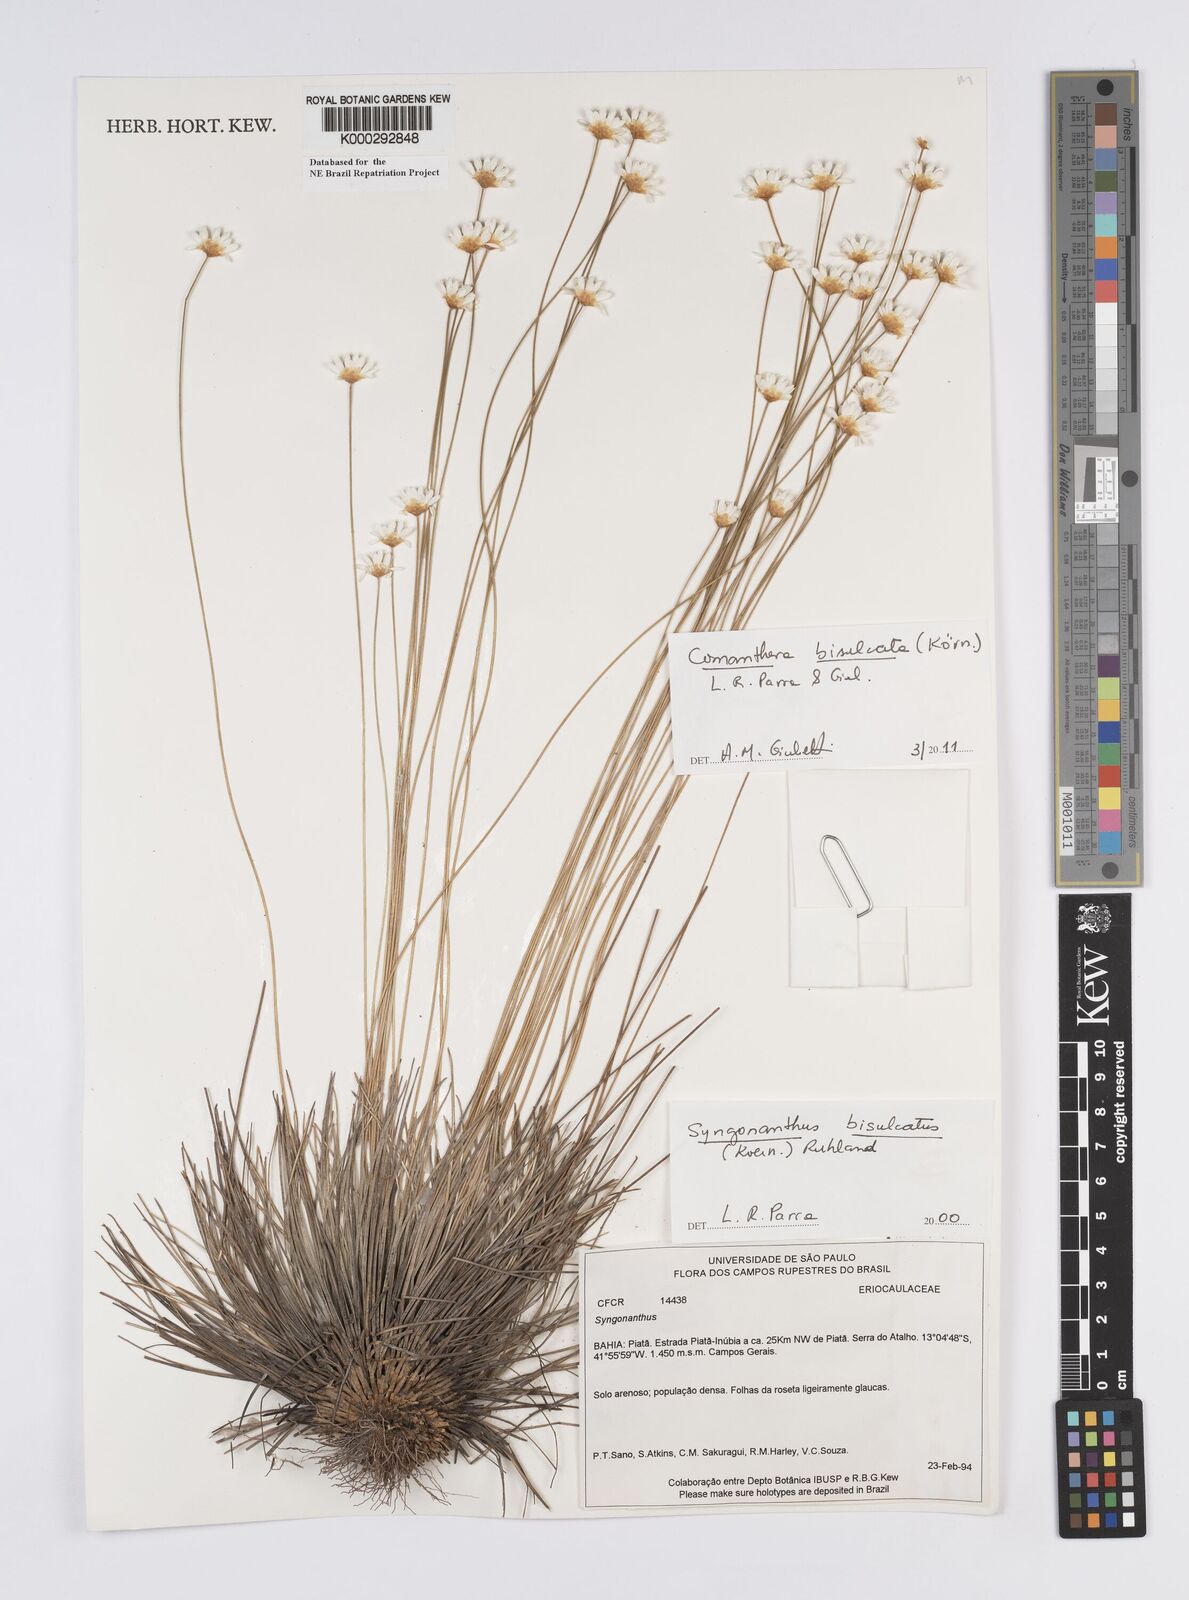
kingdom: Plantae
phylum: Tracheophyta
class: Liliopsida
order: Poales
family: Eriocaulaceae
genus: Syngonanthus
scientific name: Syngonanthus
